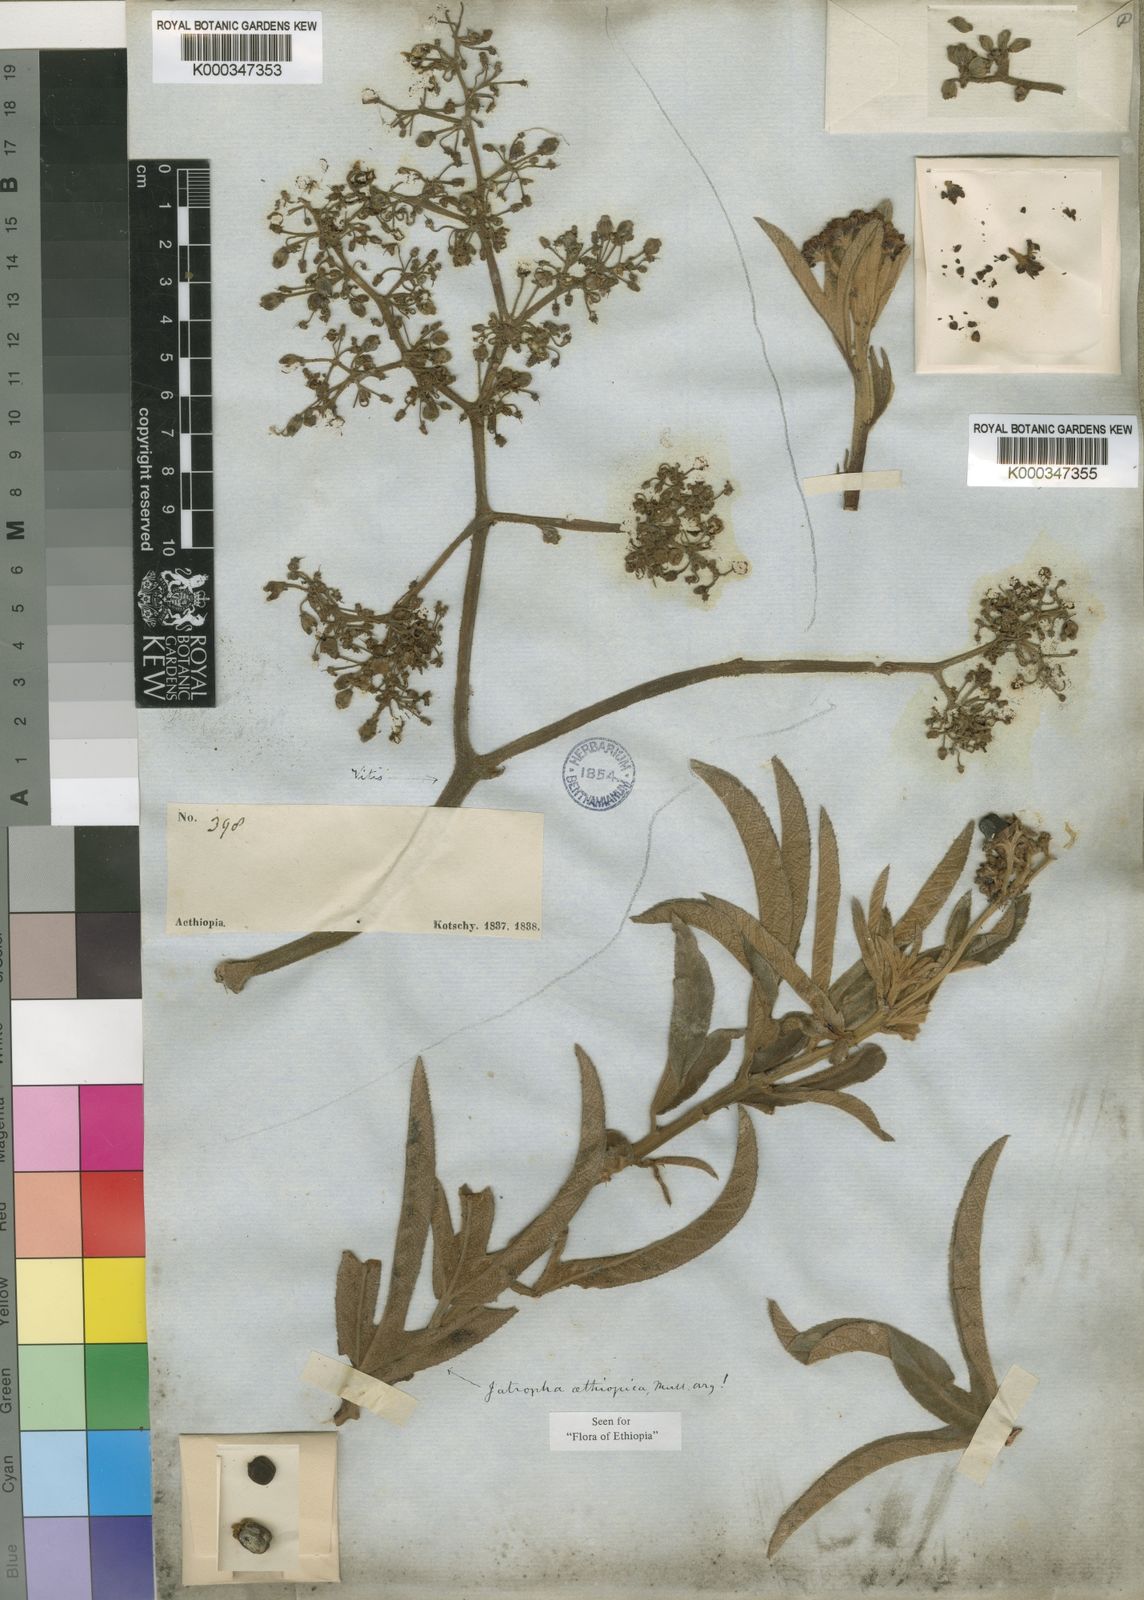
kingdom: Plantae
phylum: Tracheophyta
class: Magnoliopsida
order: Malpighiales
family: Euphorbiaceae
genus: Jatropha
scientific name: Jatropha
